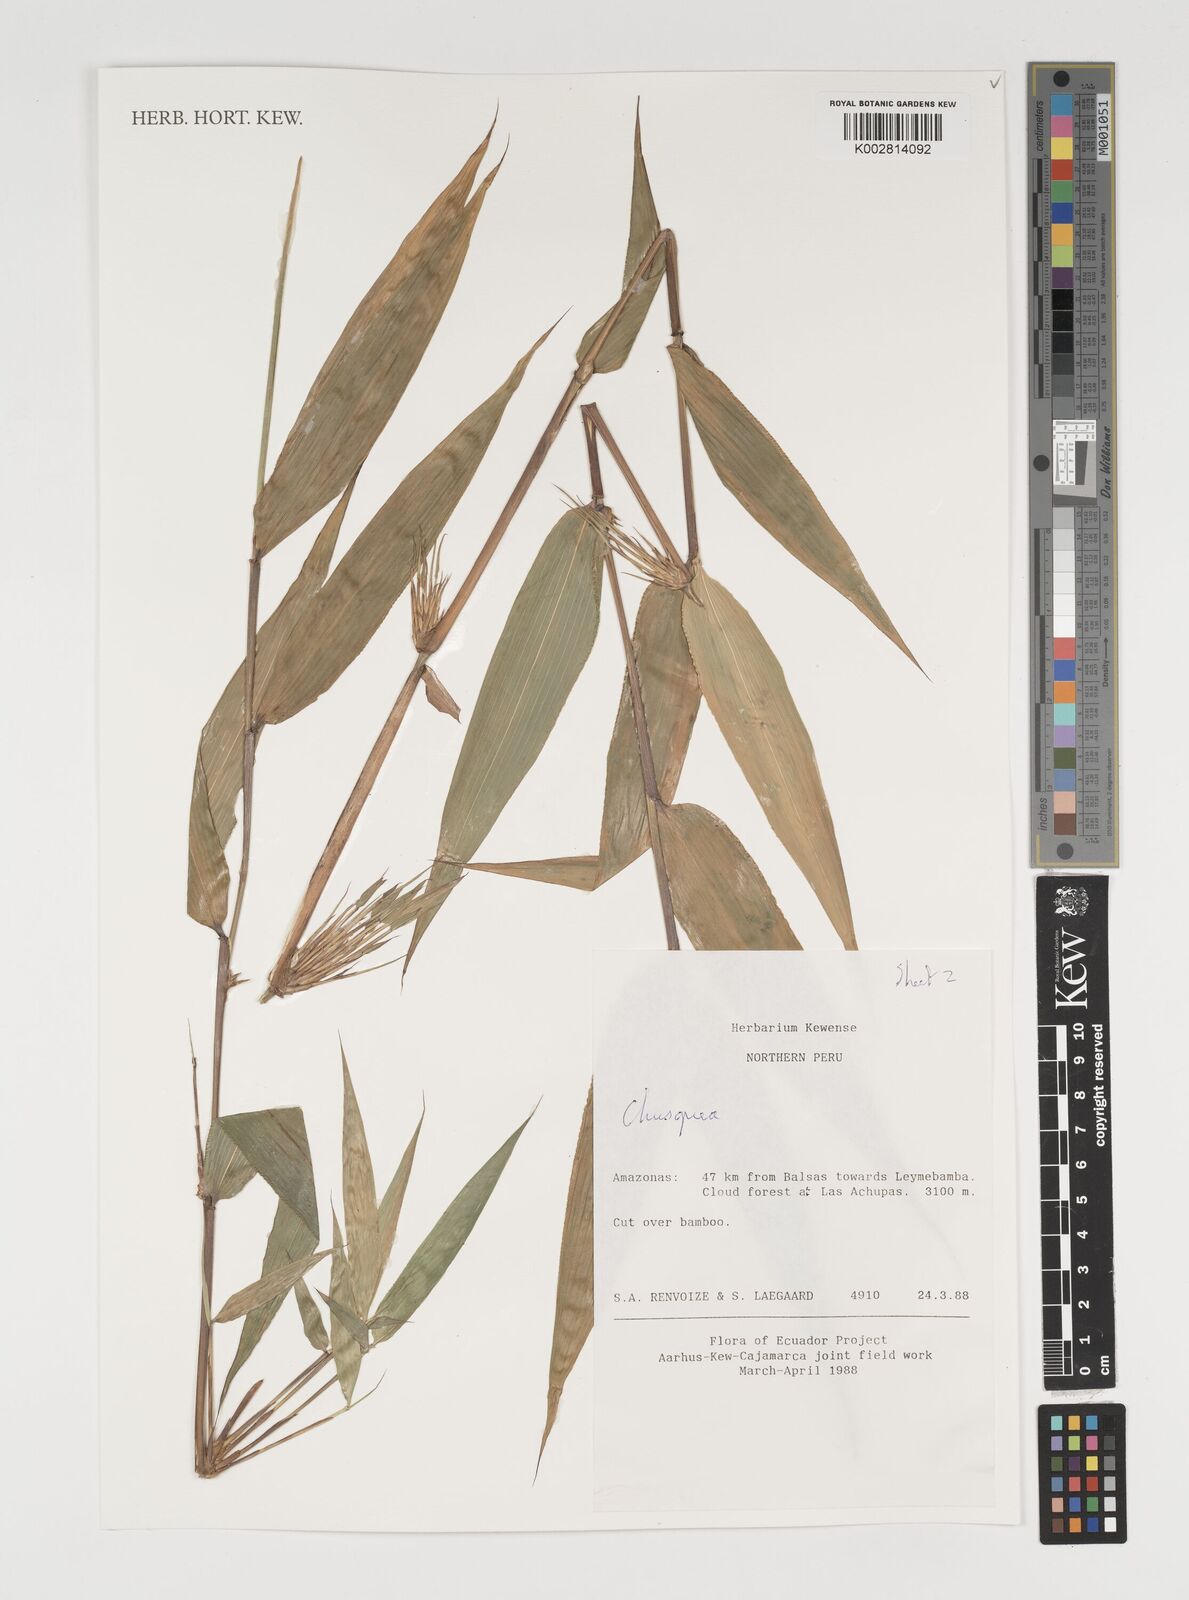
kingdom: Plantae
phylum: Tracheophyta
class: Liliopsida
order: Poales
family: Poaceae
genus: Chusquea
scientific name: Chusquea
